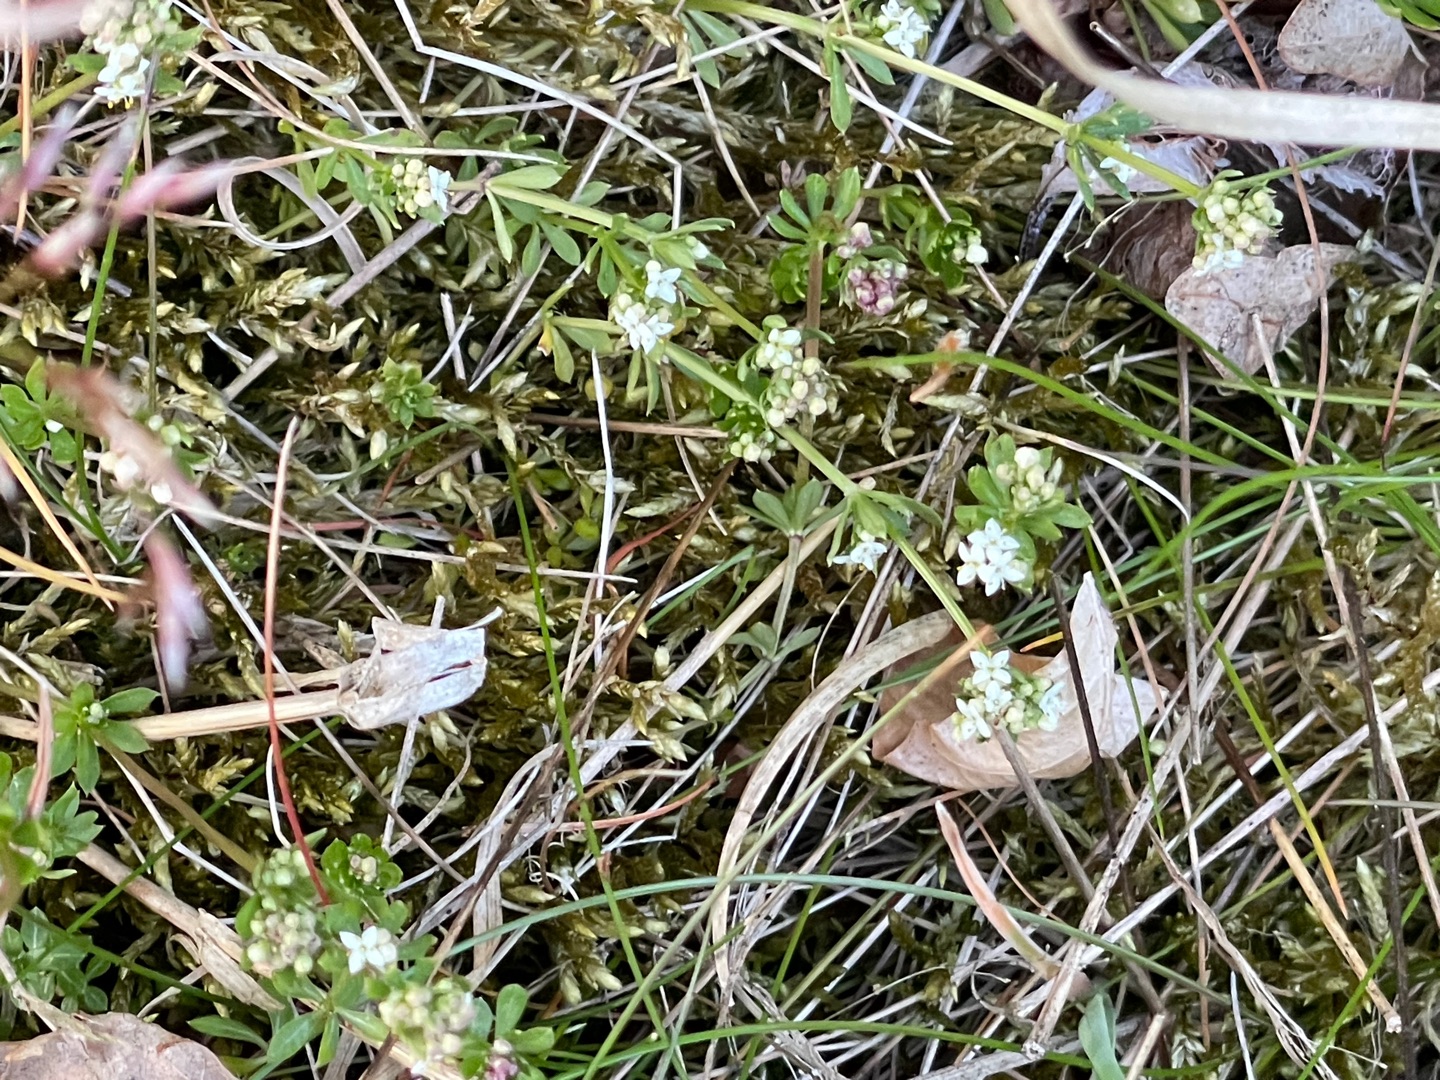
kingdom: Plantae
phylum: Tracheophyta
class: Magnoliopsida
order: Gentianales
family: Rubiaceae
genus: Galium
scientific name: Galium saxatile
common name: Lyng-snerre
